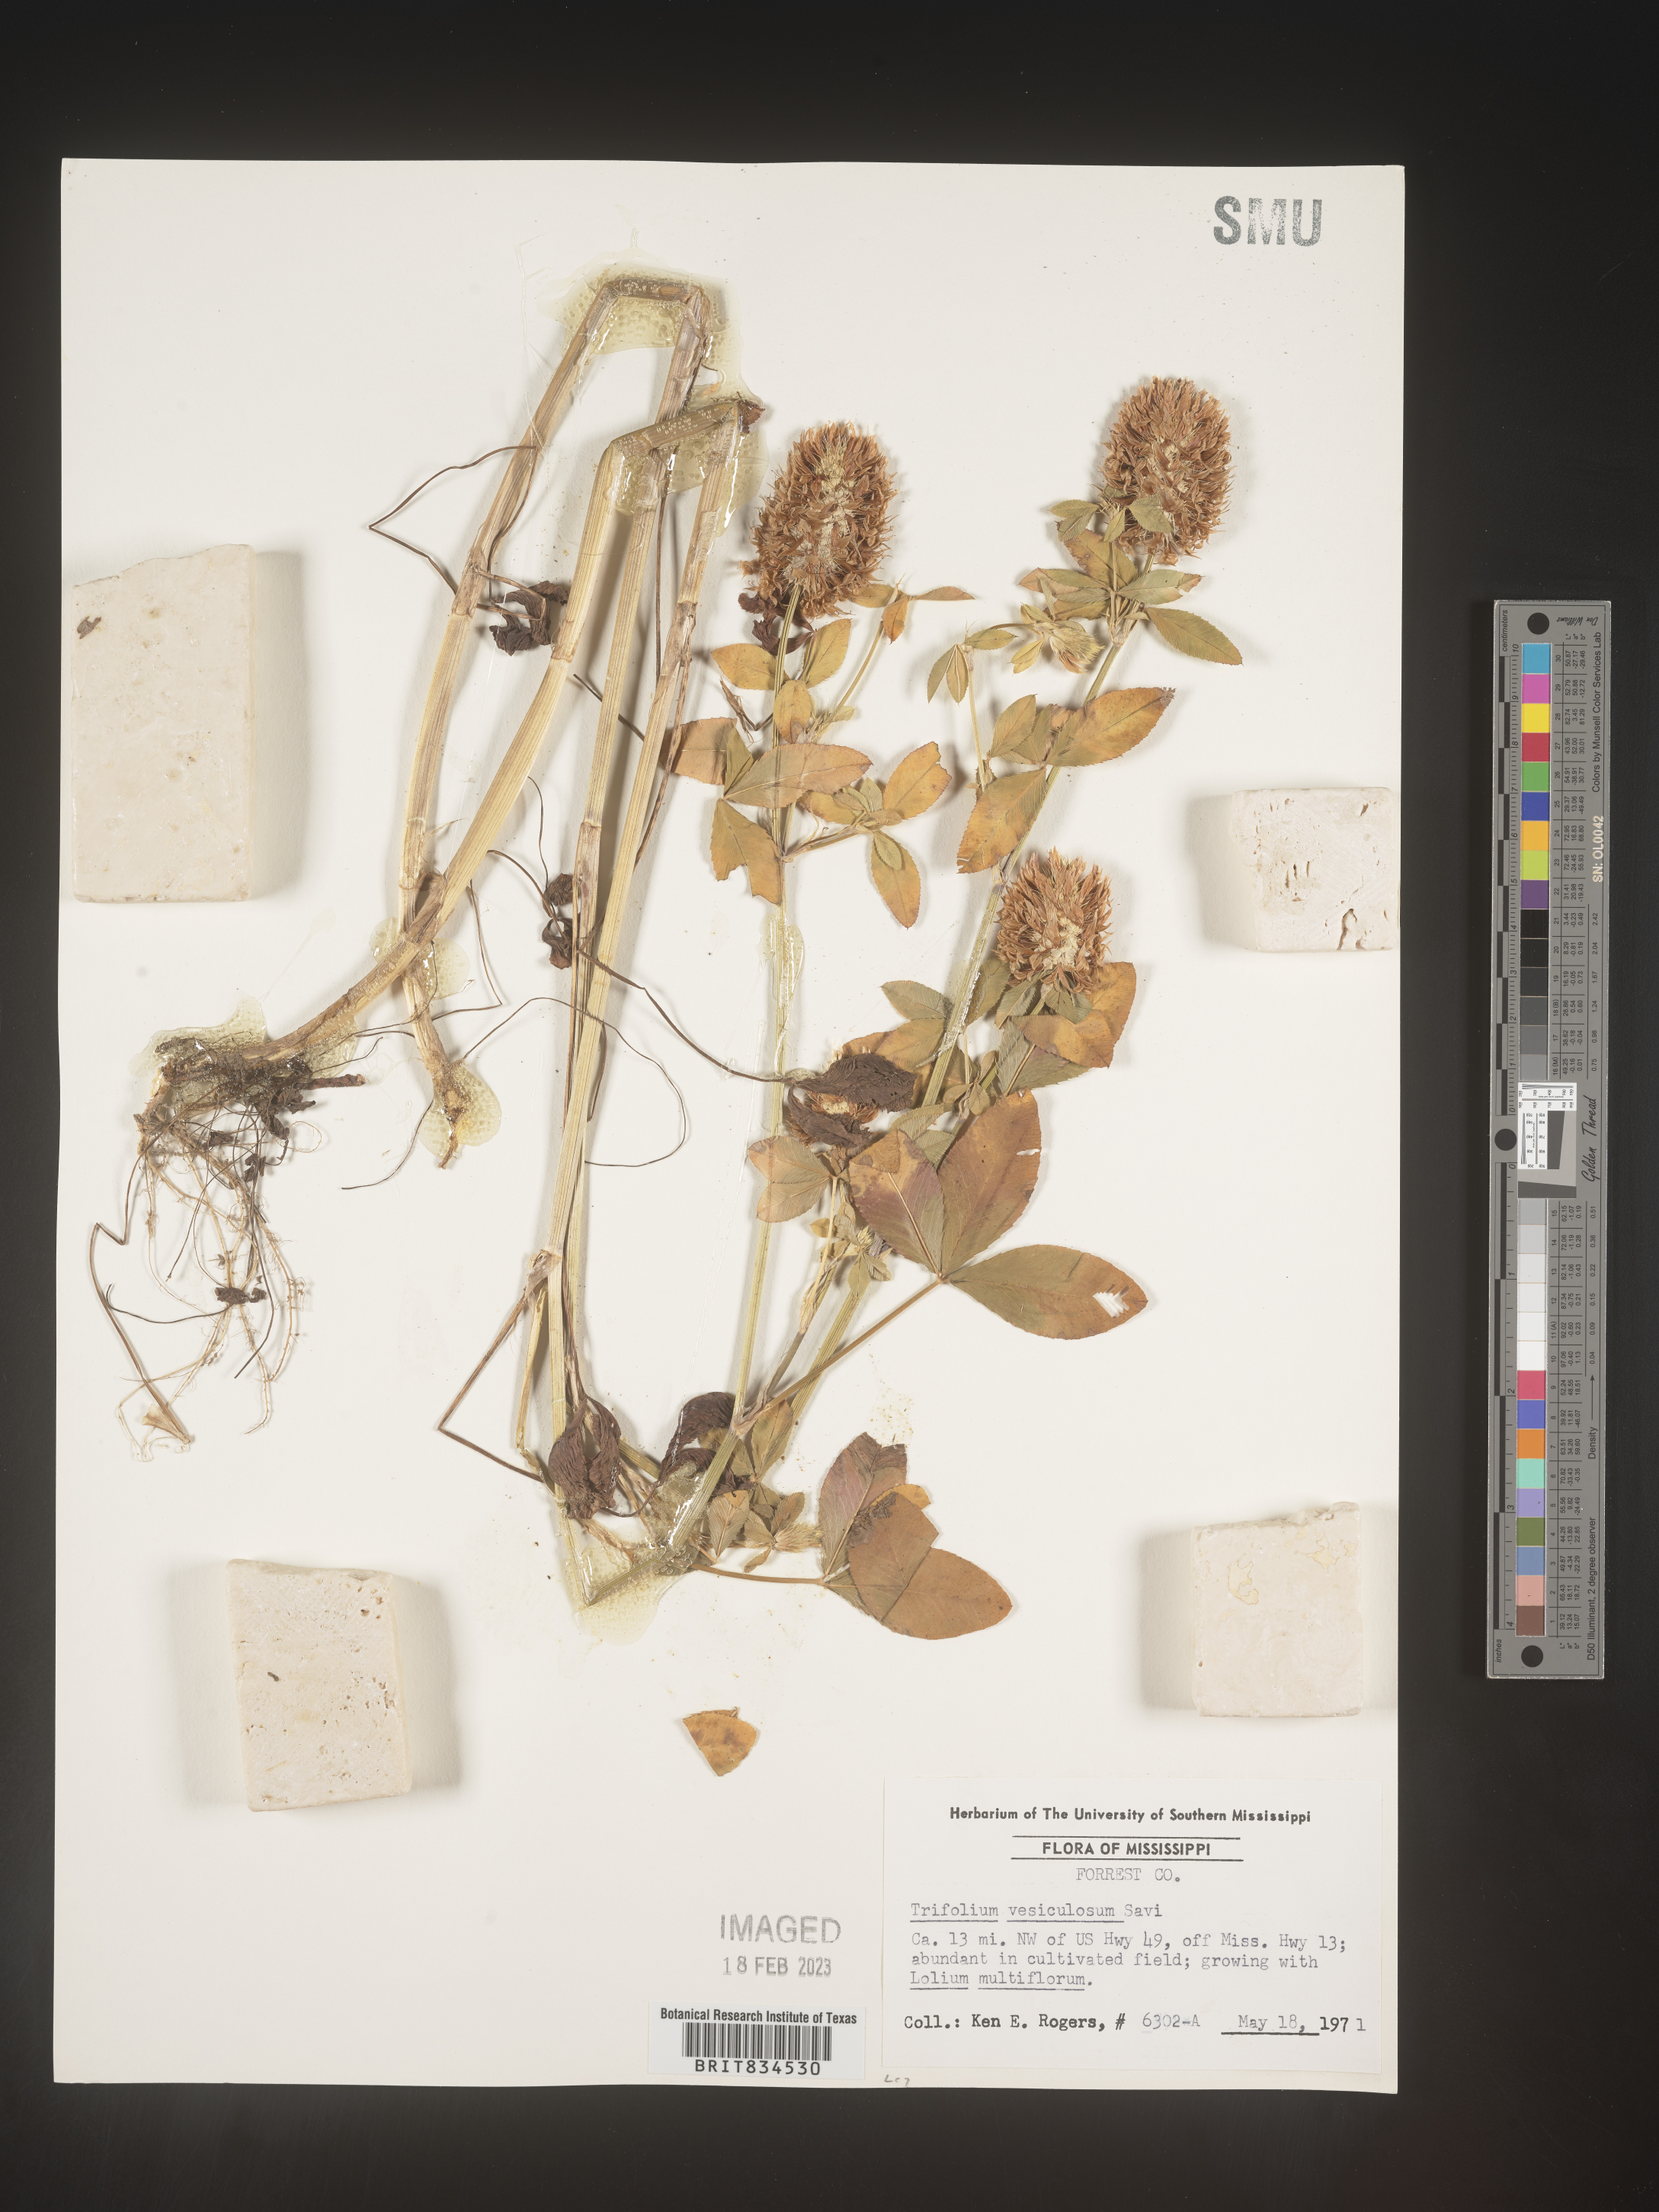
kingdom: Plantae
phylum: Tracheophyta
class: Magnoliopsida
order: Fabales
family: Fabaceae
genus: Trifolium
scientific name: Trifolium
